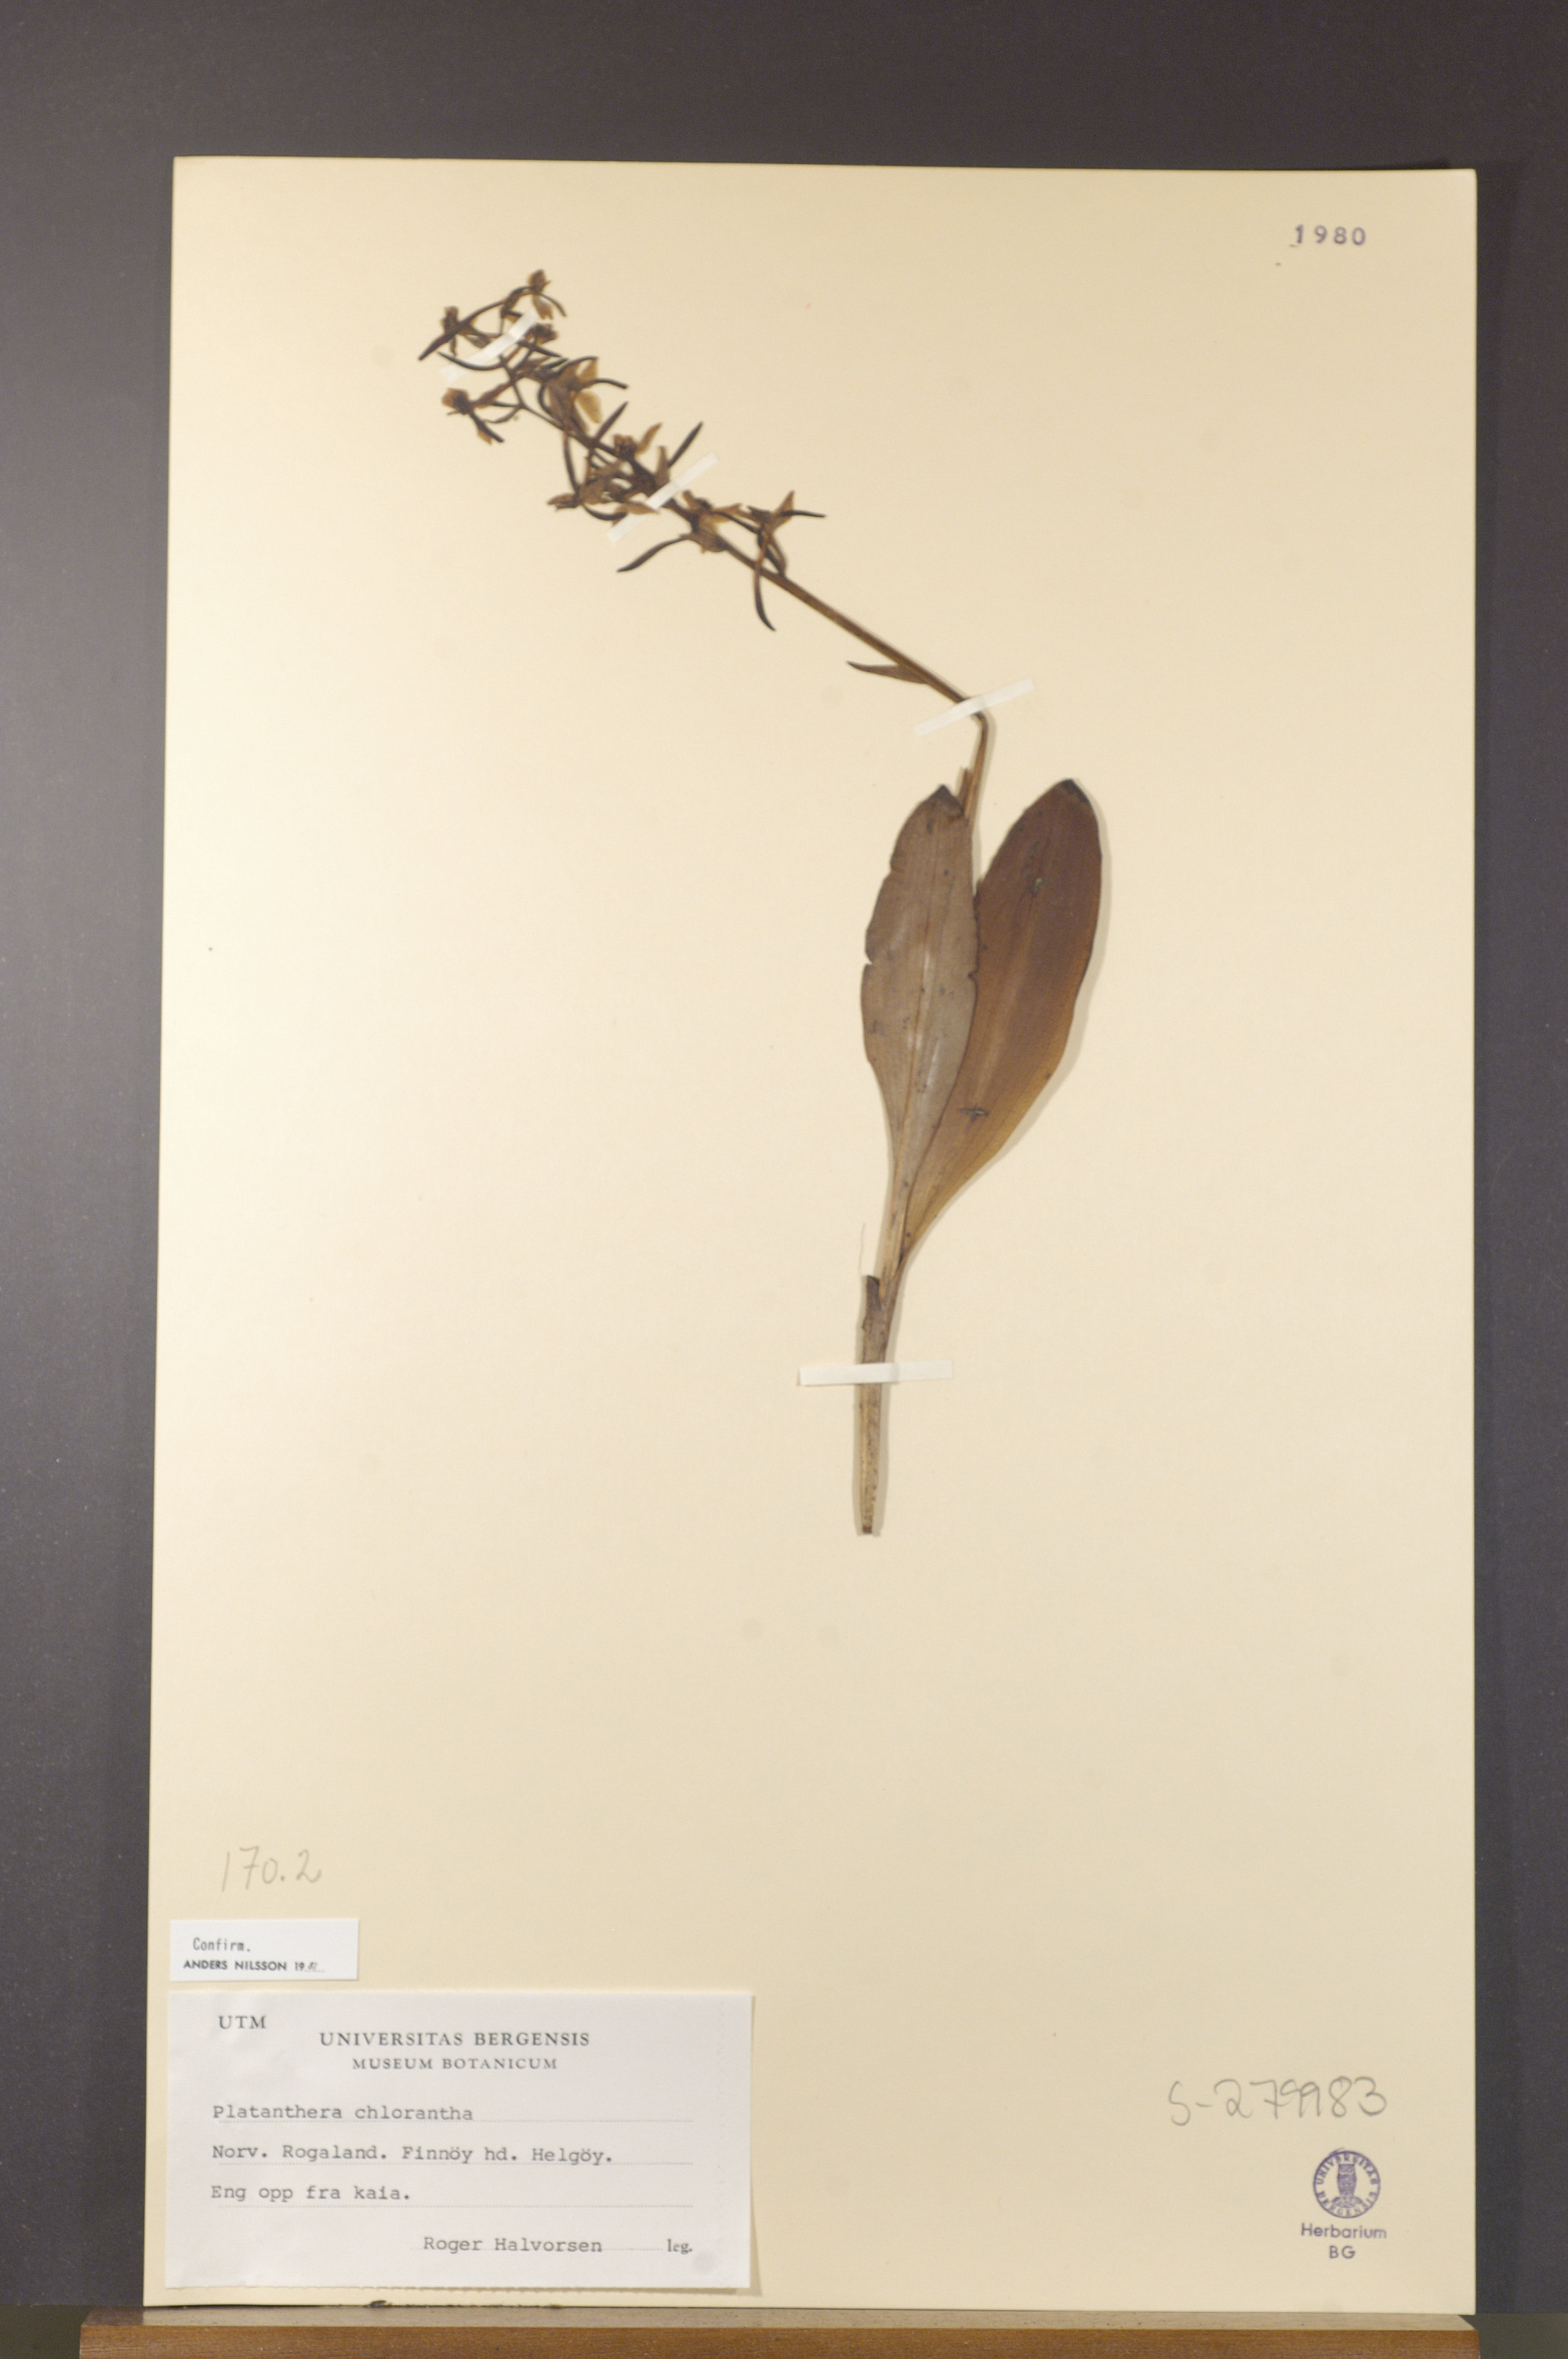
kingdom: Plantae
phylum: Tracheophyta
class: Liliopsida
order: Asparagales
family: Orchidaceae
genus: Platanthera
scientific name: Platanthera chlorantha
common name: Greater butterfly-orchid
